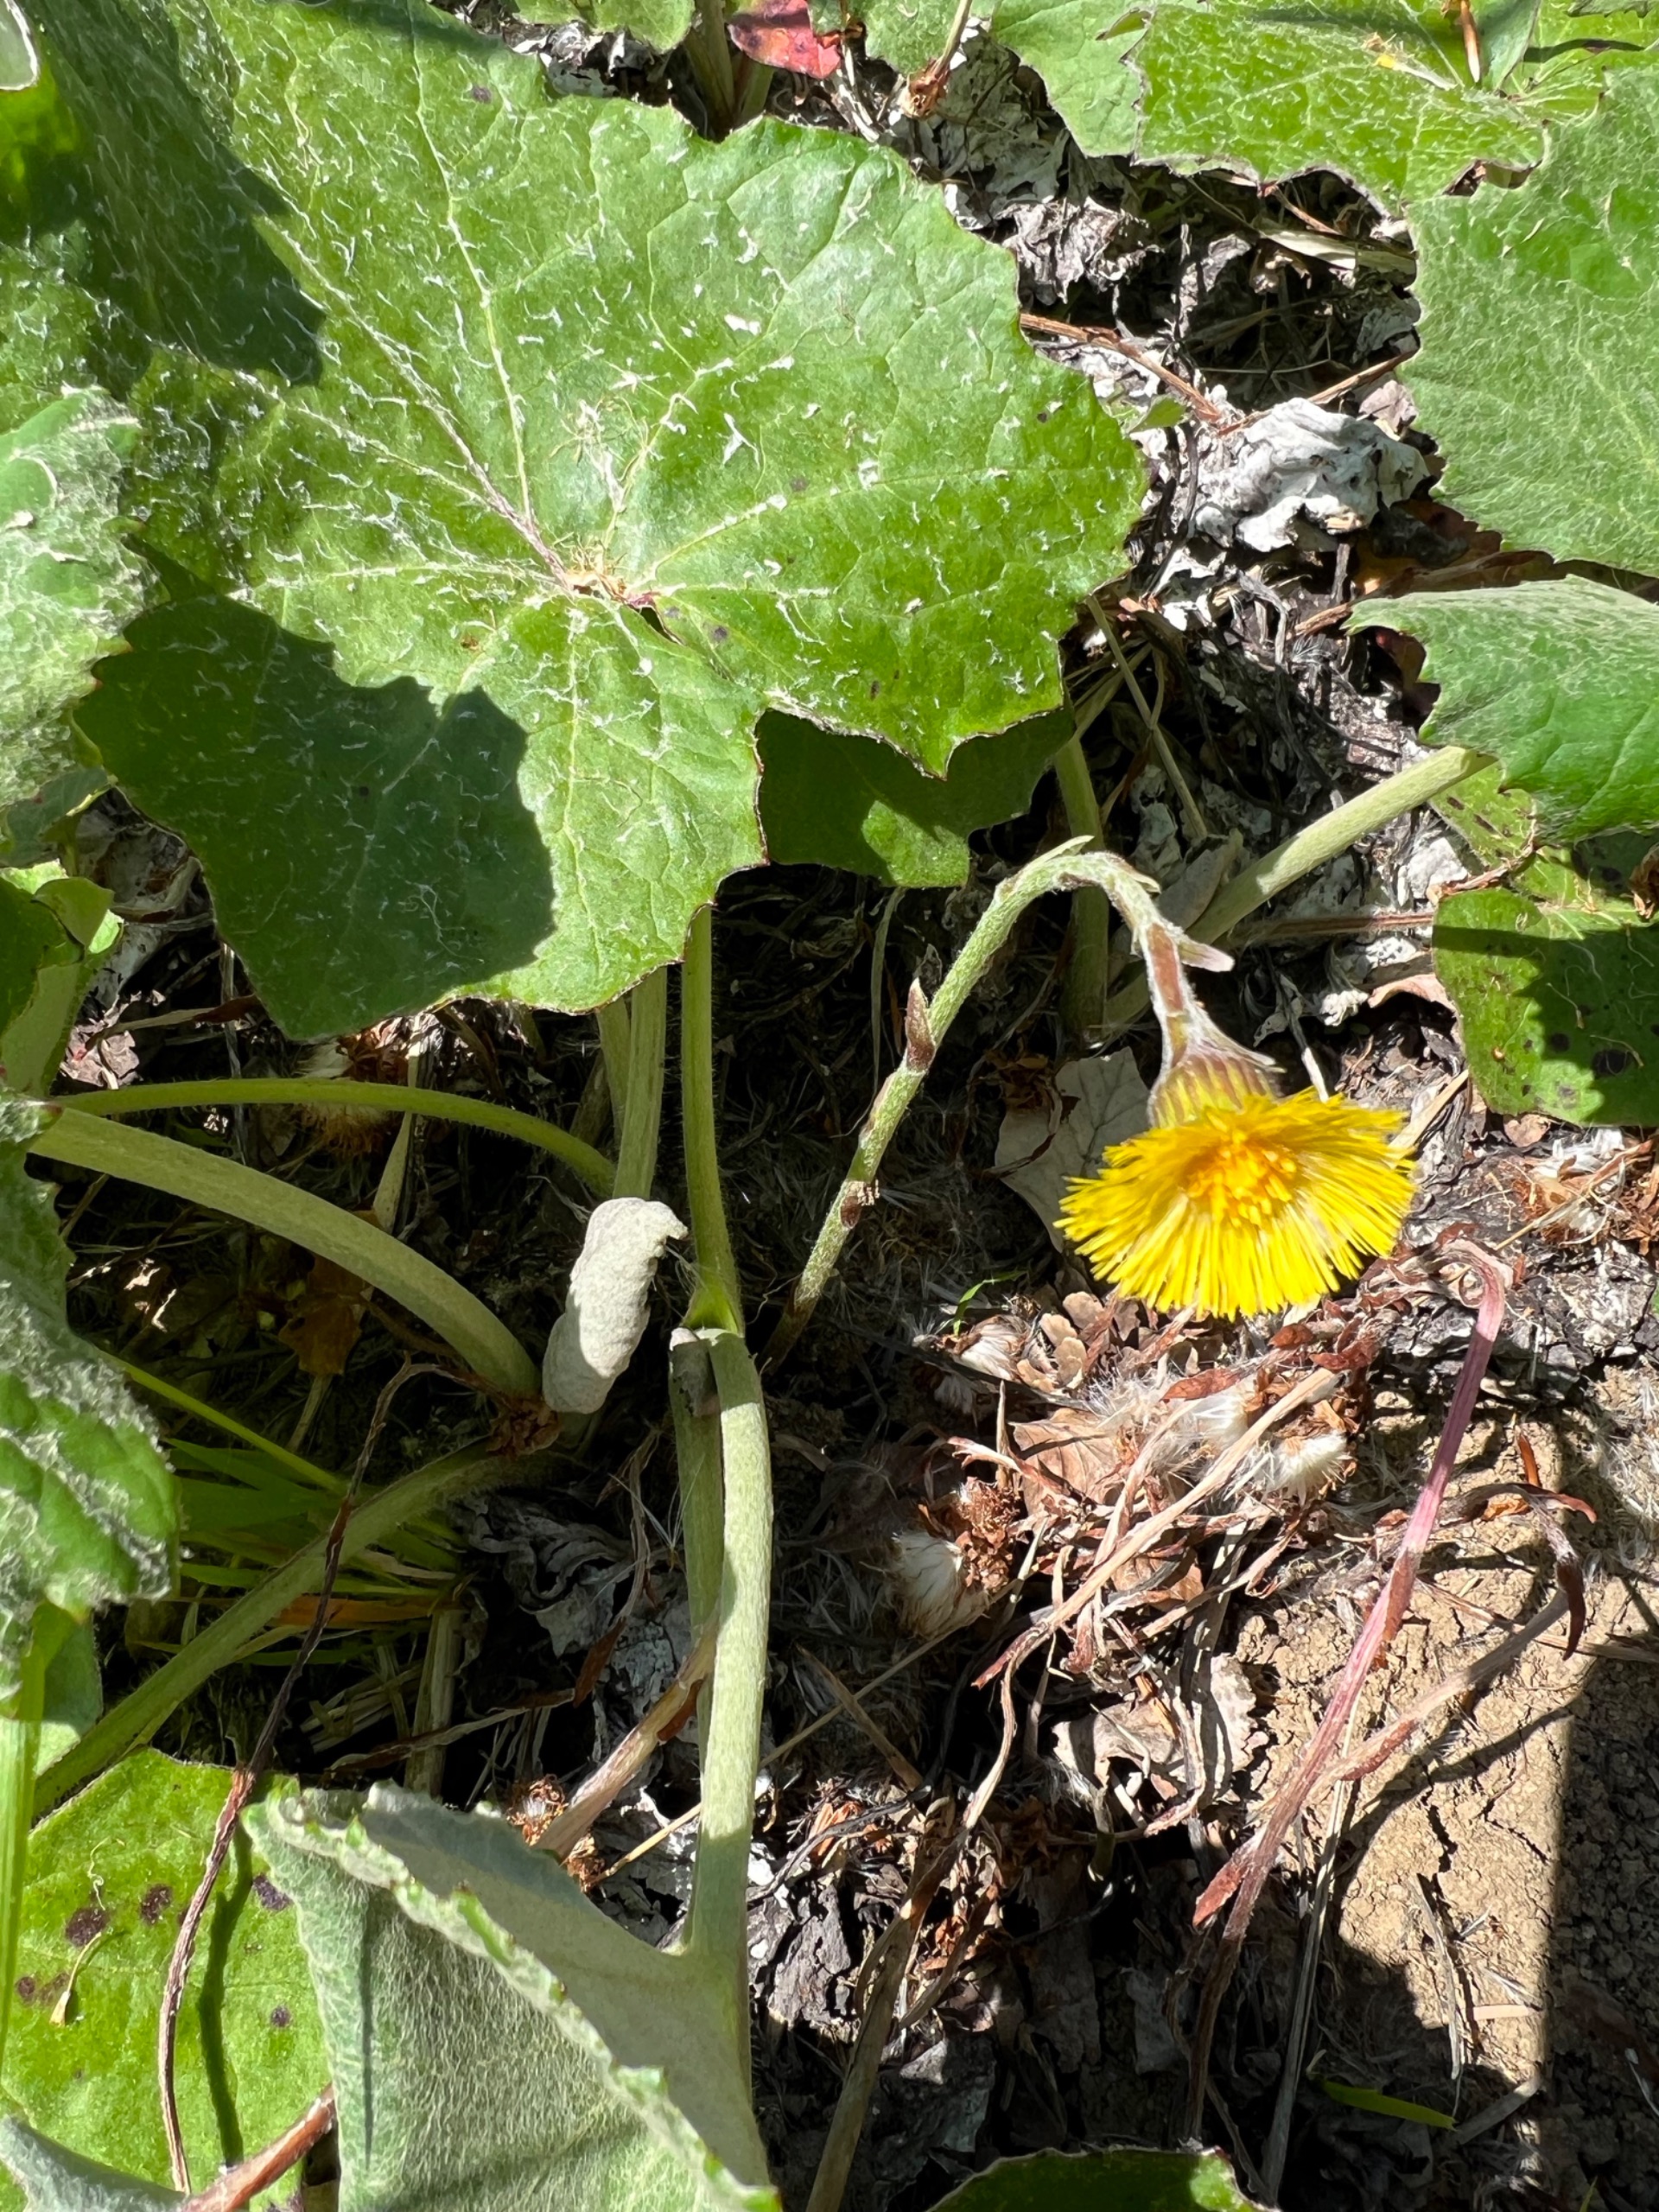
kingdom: Plantae
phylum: Tracheophyta
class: Magnoliopsida
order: Asterales
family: Asteraceae
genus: Tussilago
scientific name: Tussilago farfara
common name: Følfod
